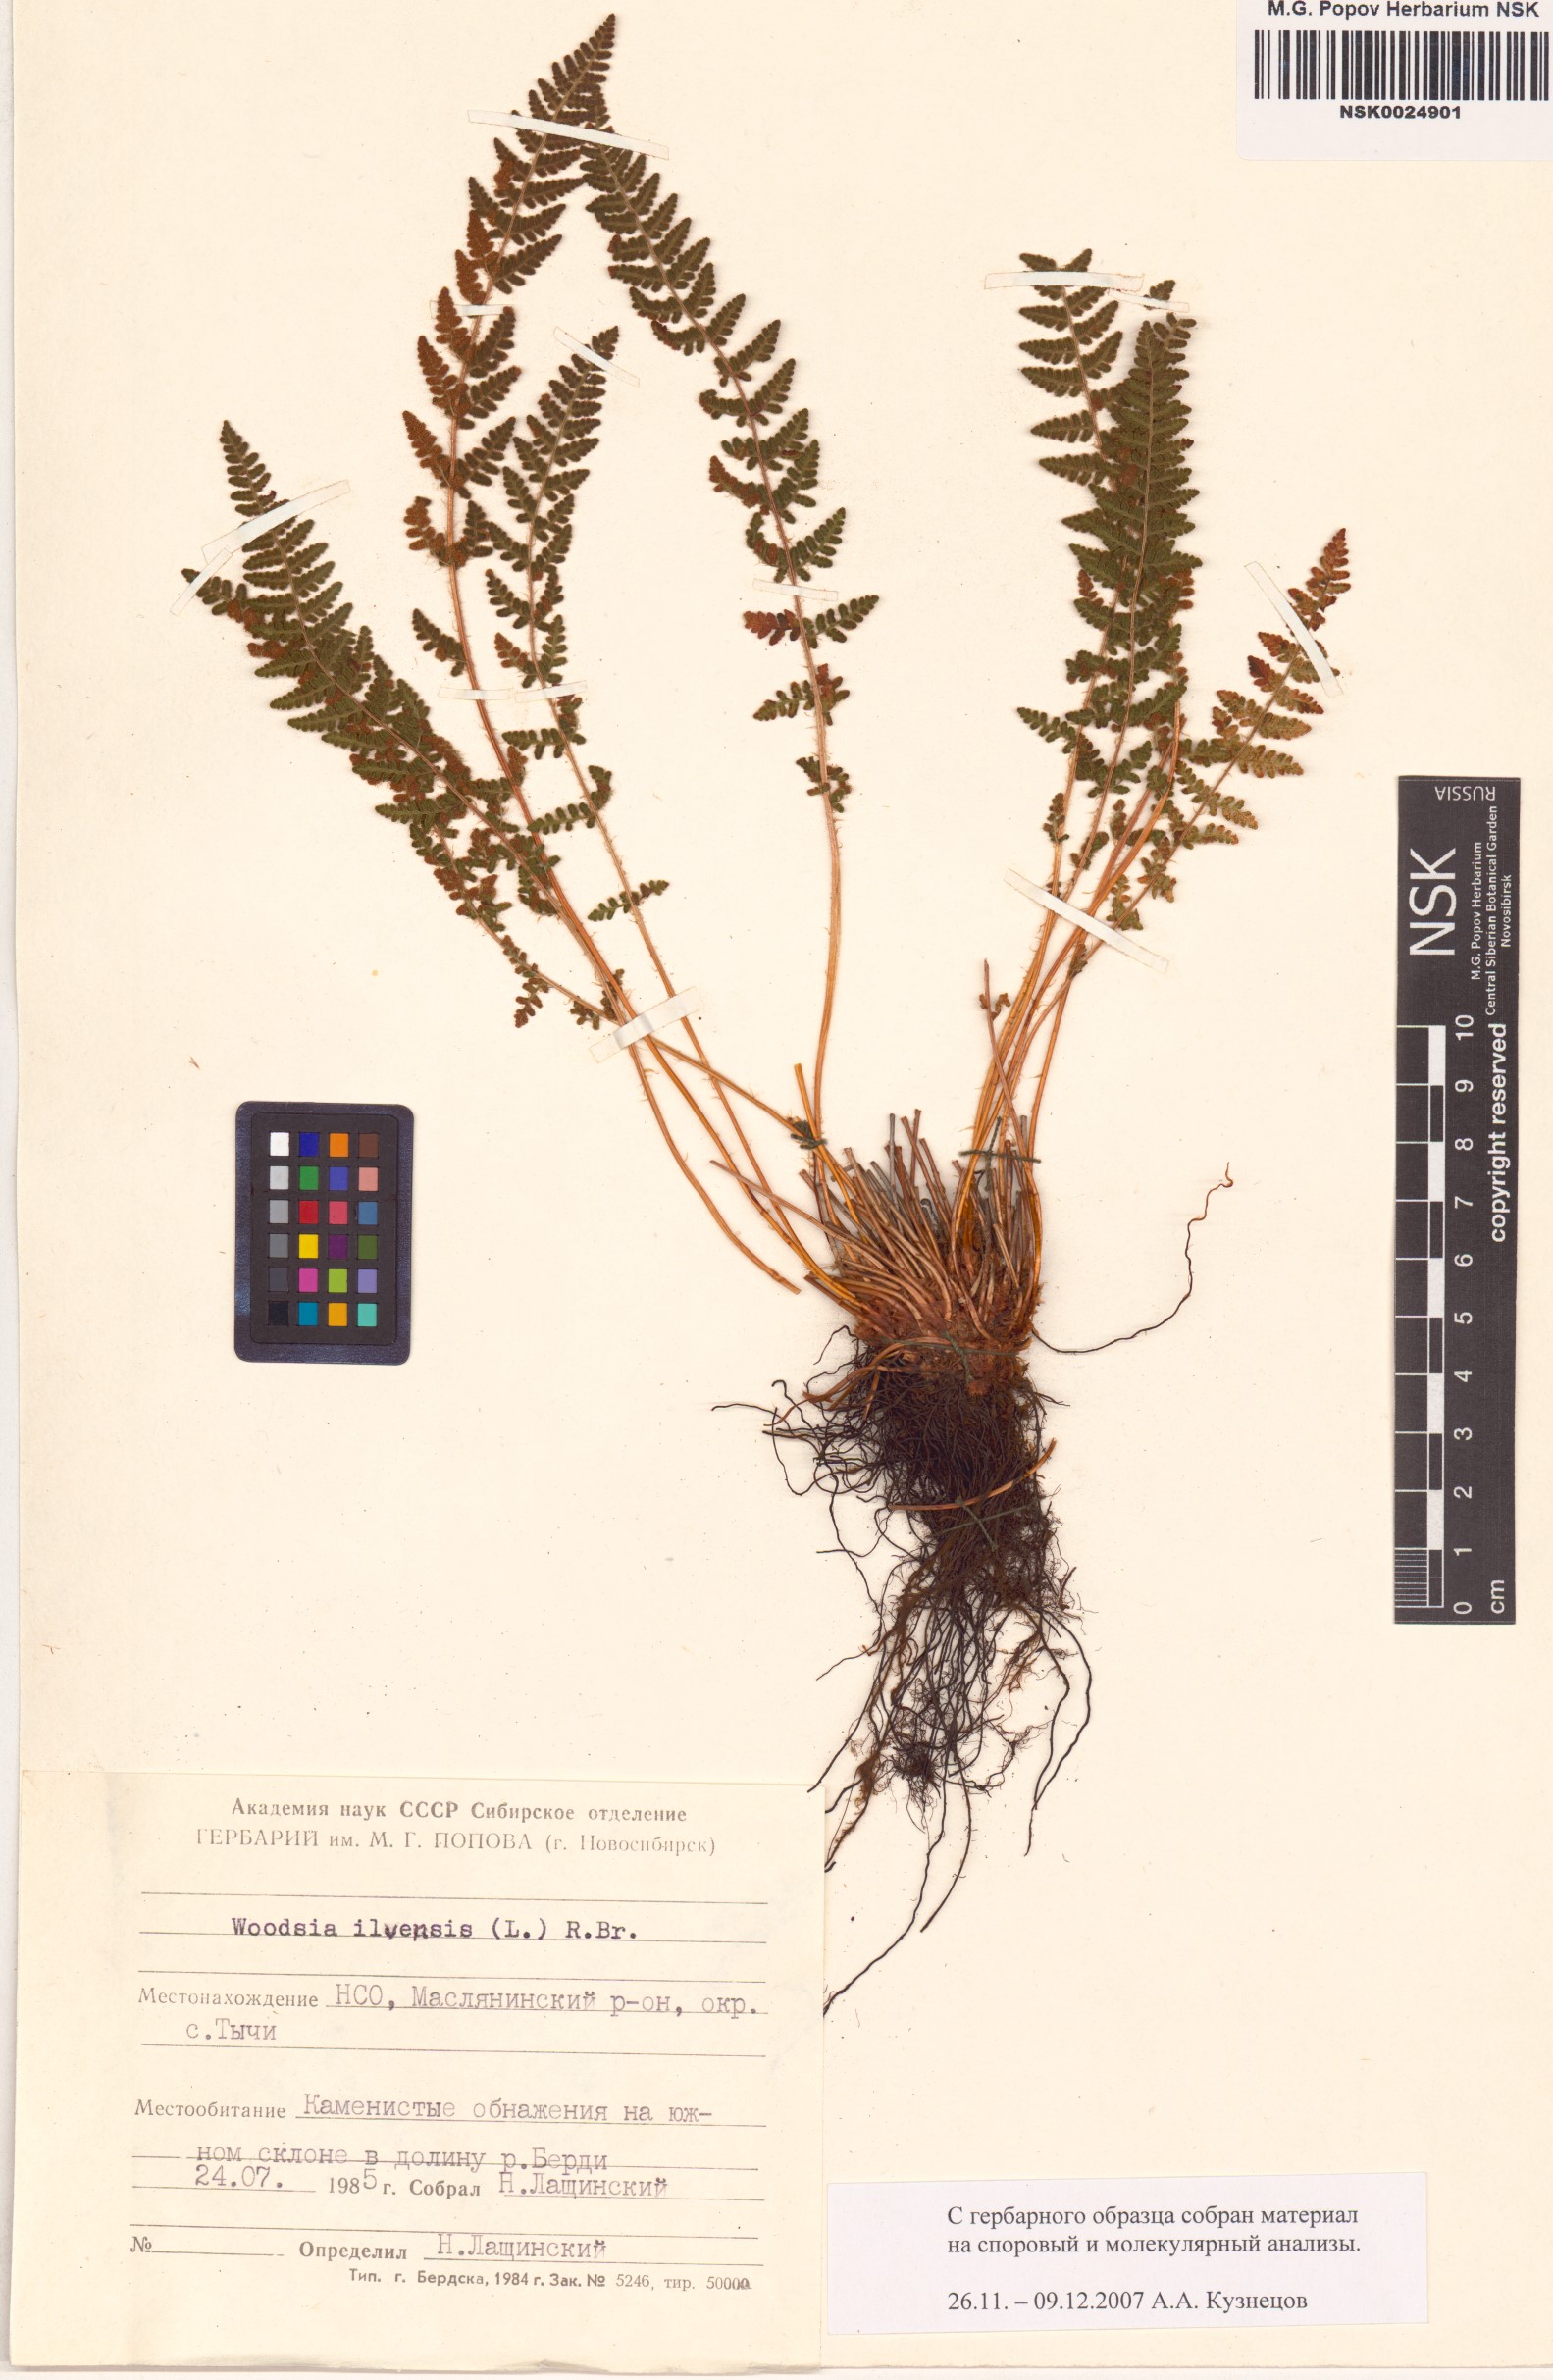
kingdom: Plantae
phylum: Tracheophyta
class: Polypodiopsida
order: Polypodiales
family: Woodsiaceae
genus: Woodsia
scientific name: Woodsia ilvensis
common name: Fragrant woodsia
